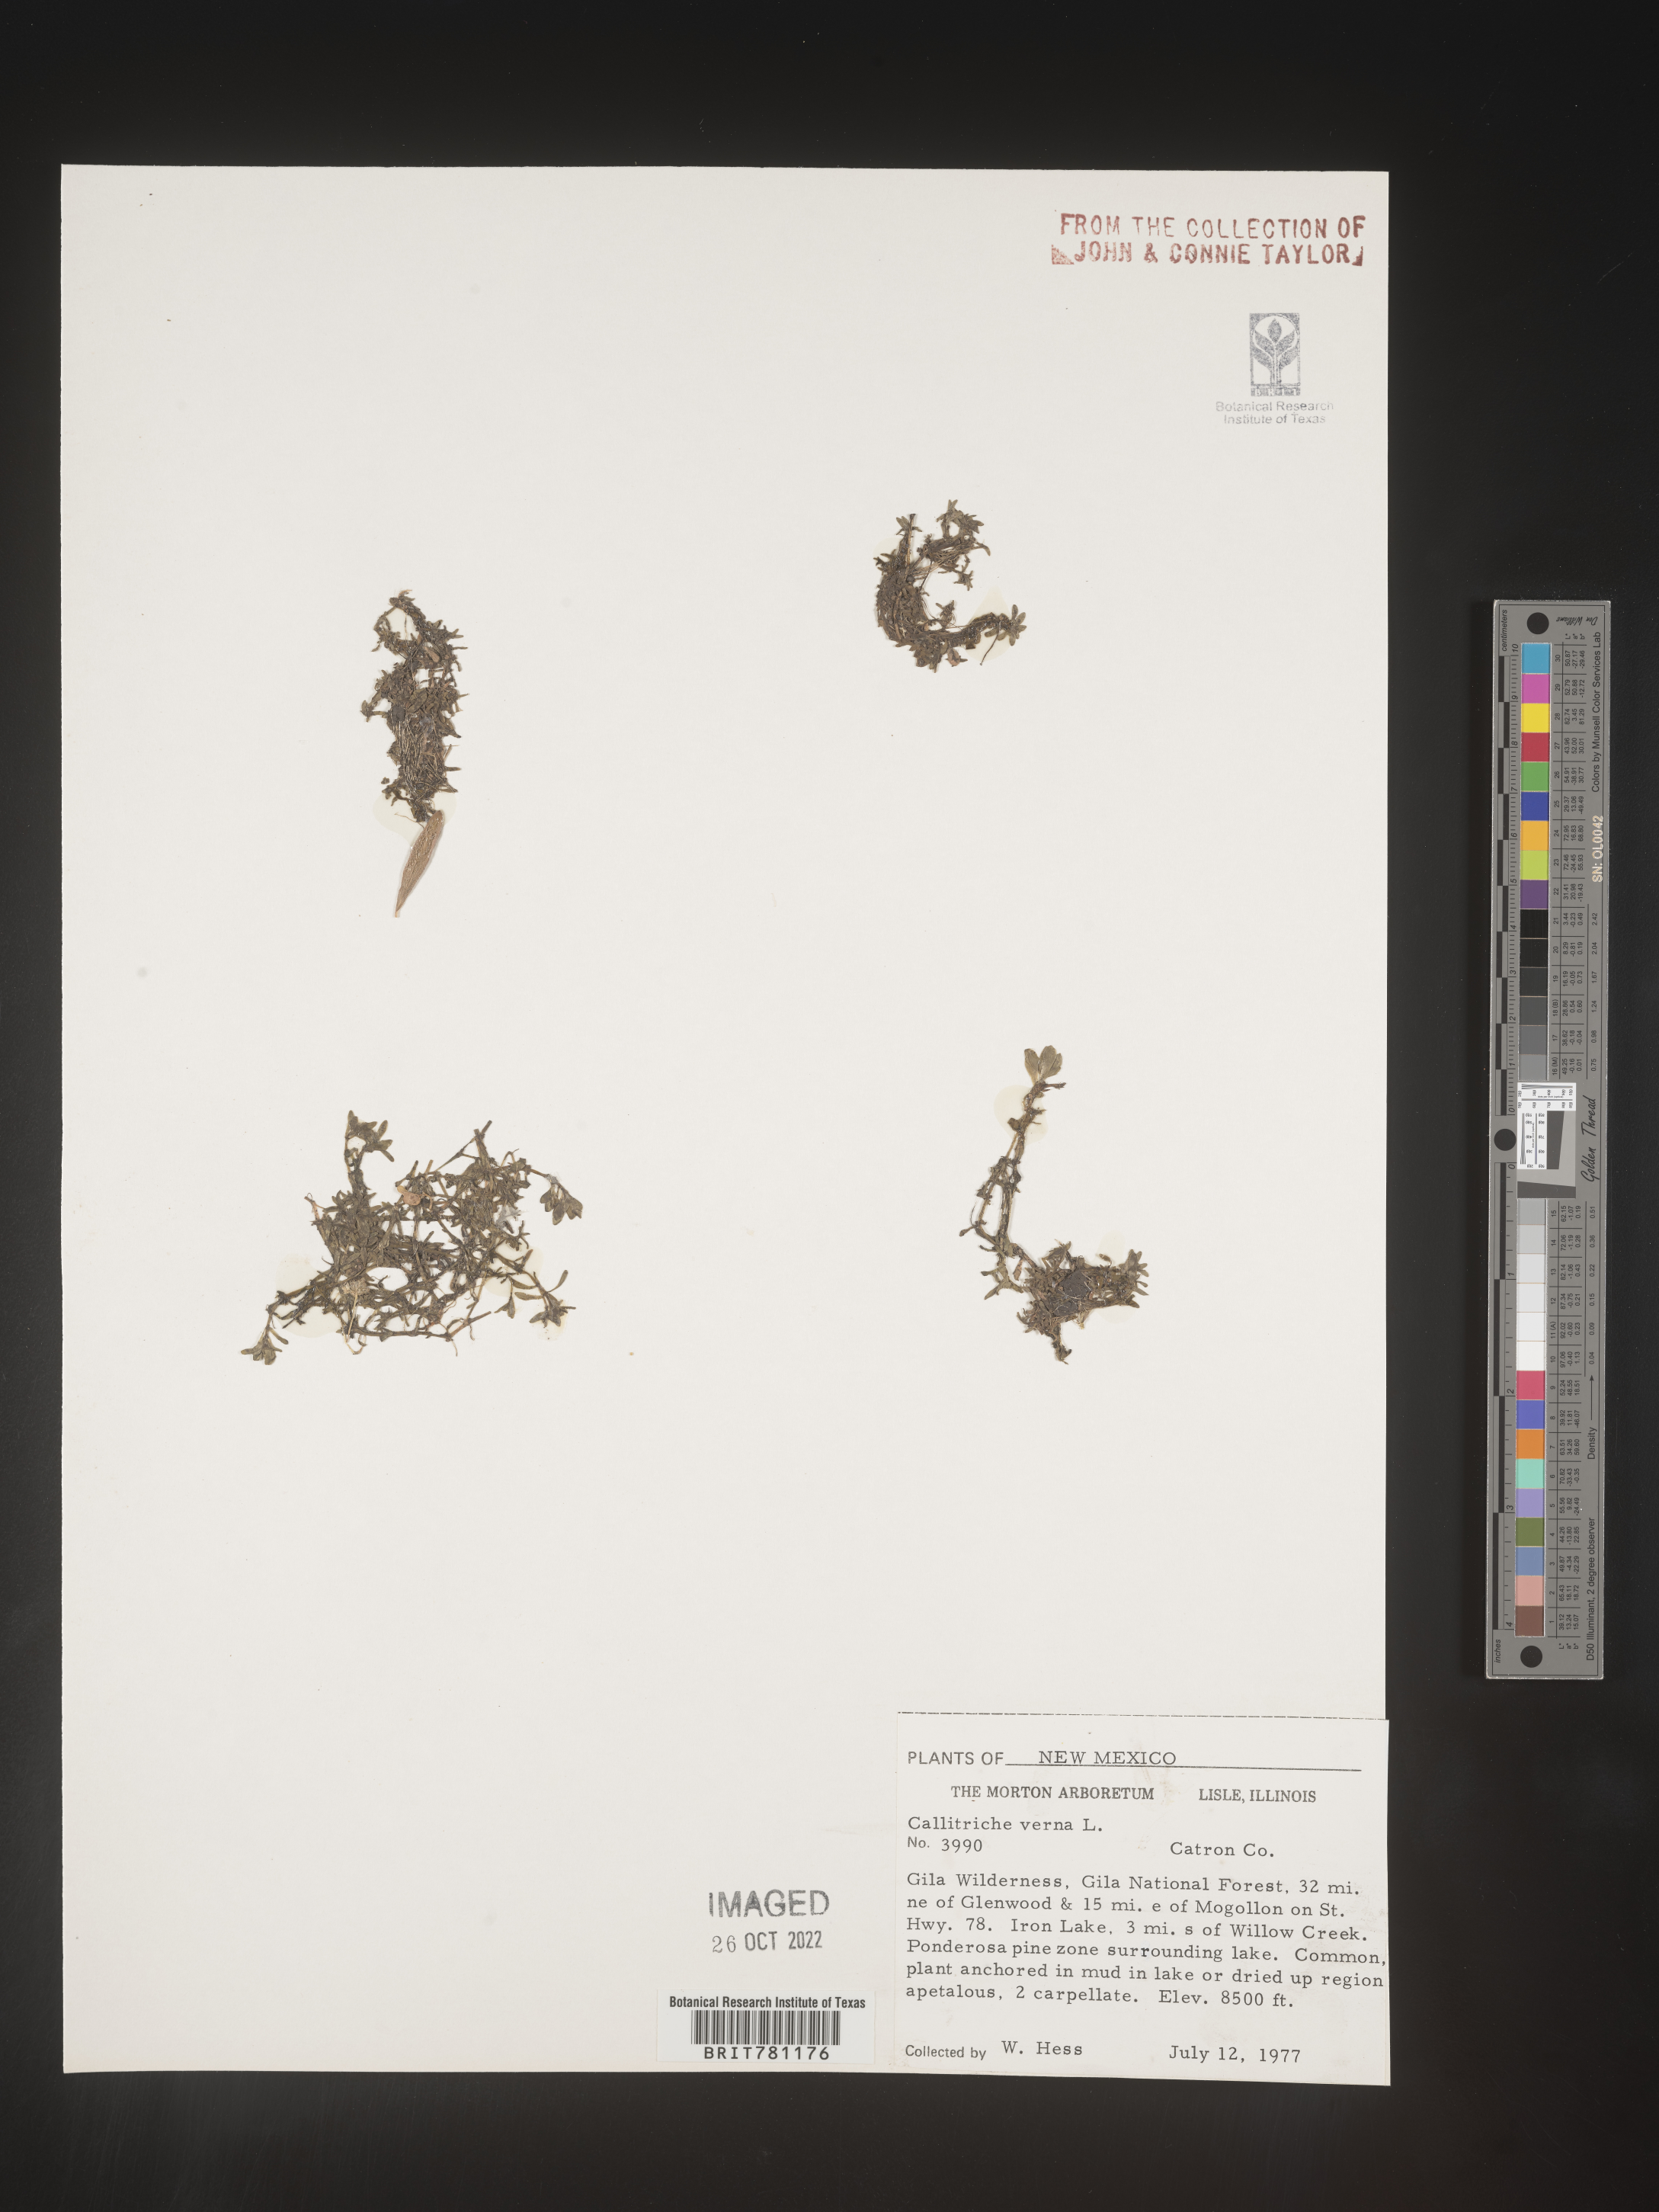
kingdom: Plantae
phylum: Tracheophyta
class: Magnoliopsida
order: Lamiales
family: Plantaginaceae
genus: Callitriche
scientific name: Callitriche
